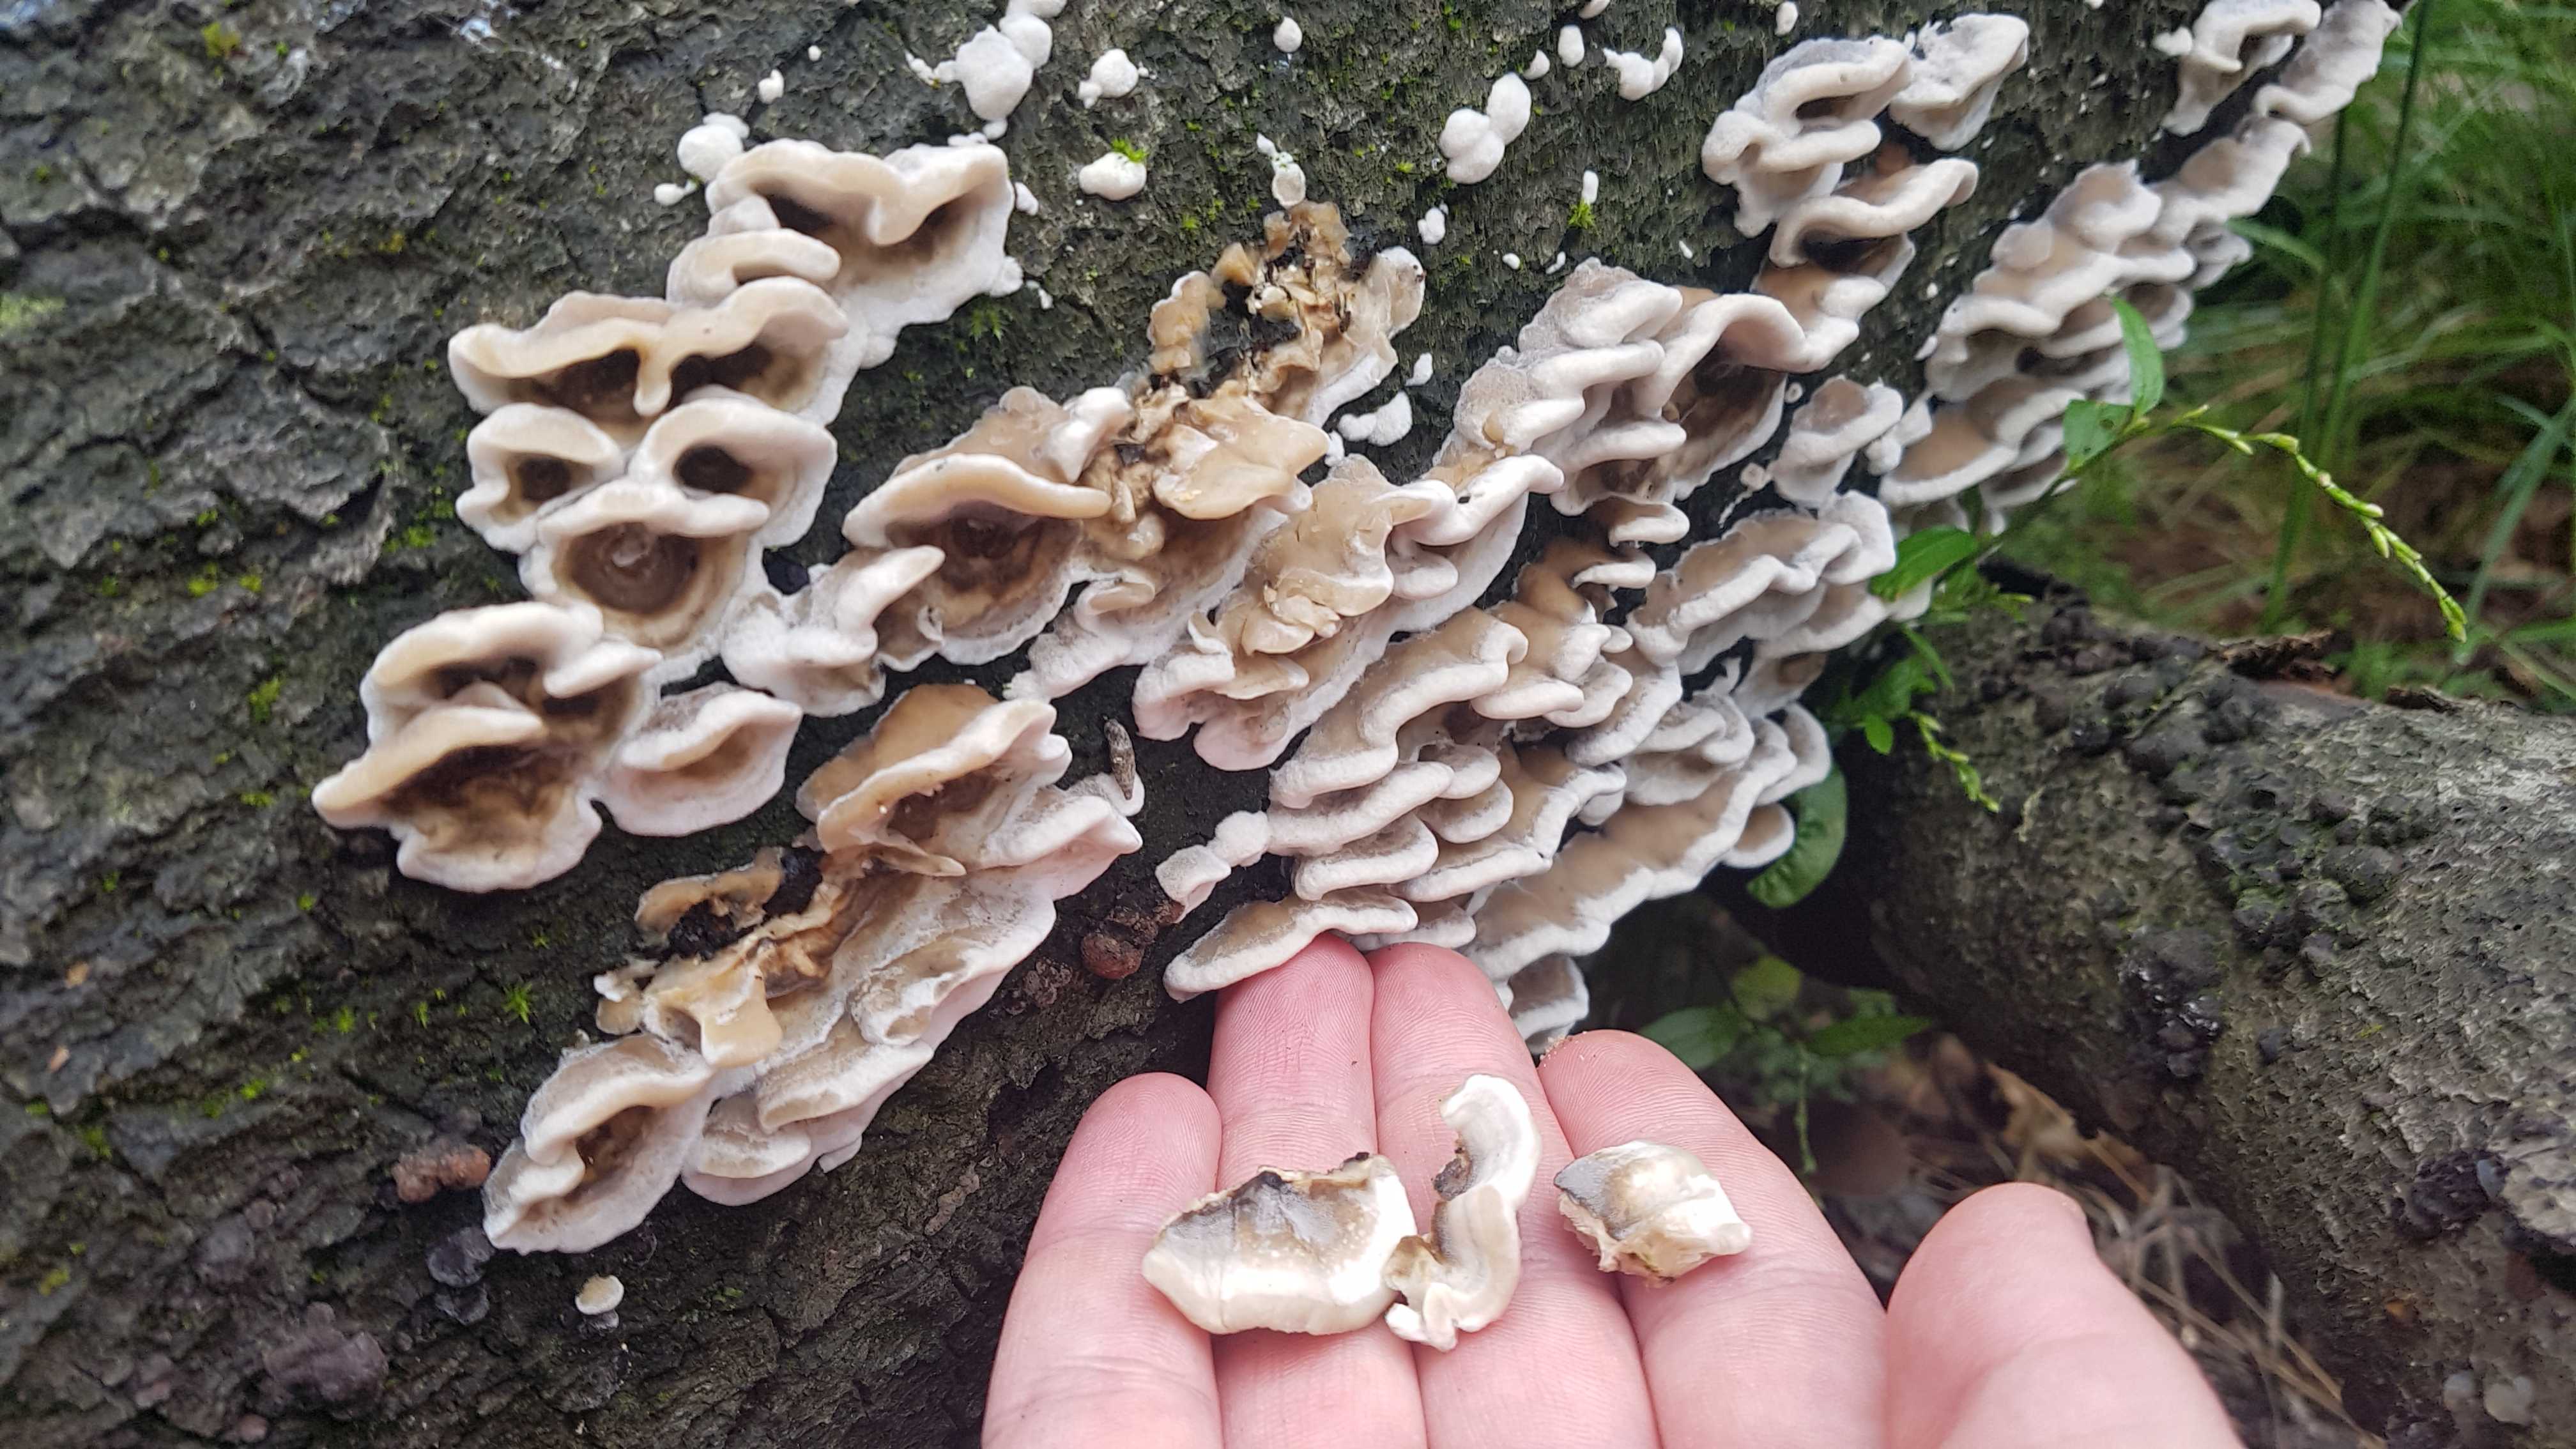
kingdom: Fungi
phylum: Basidiomycota
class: Agaricomycetes
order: Polyporales
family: Phanerochaetaceae
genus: Bjerkandera
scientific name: Bjerkandera adusta
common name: sveden sodporesvamp
